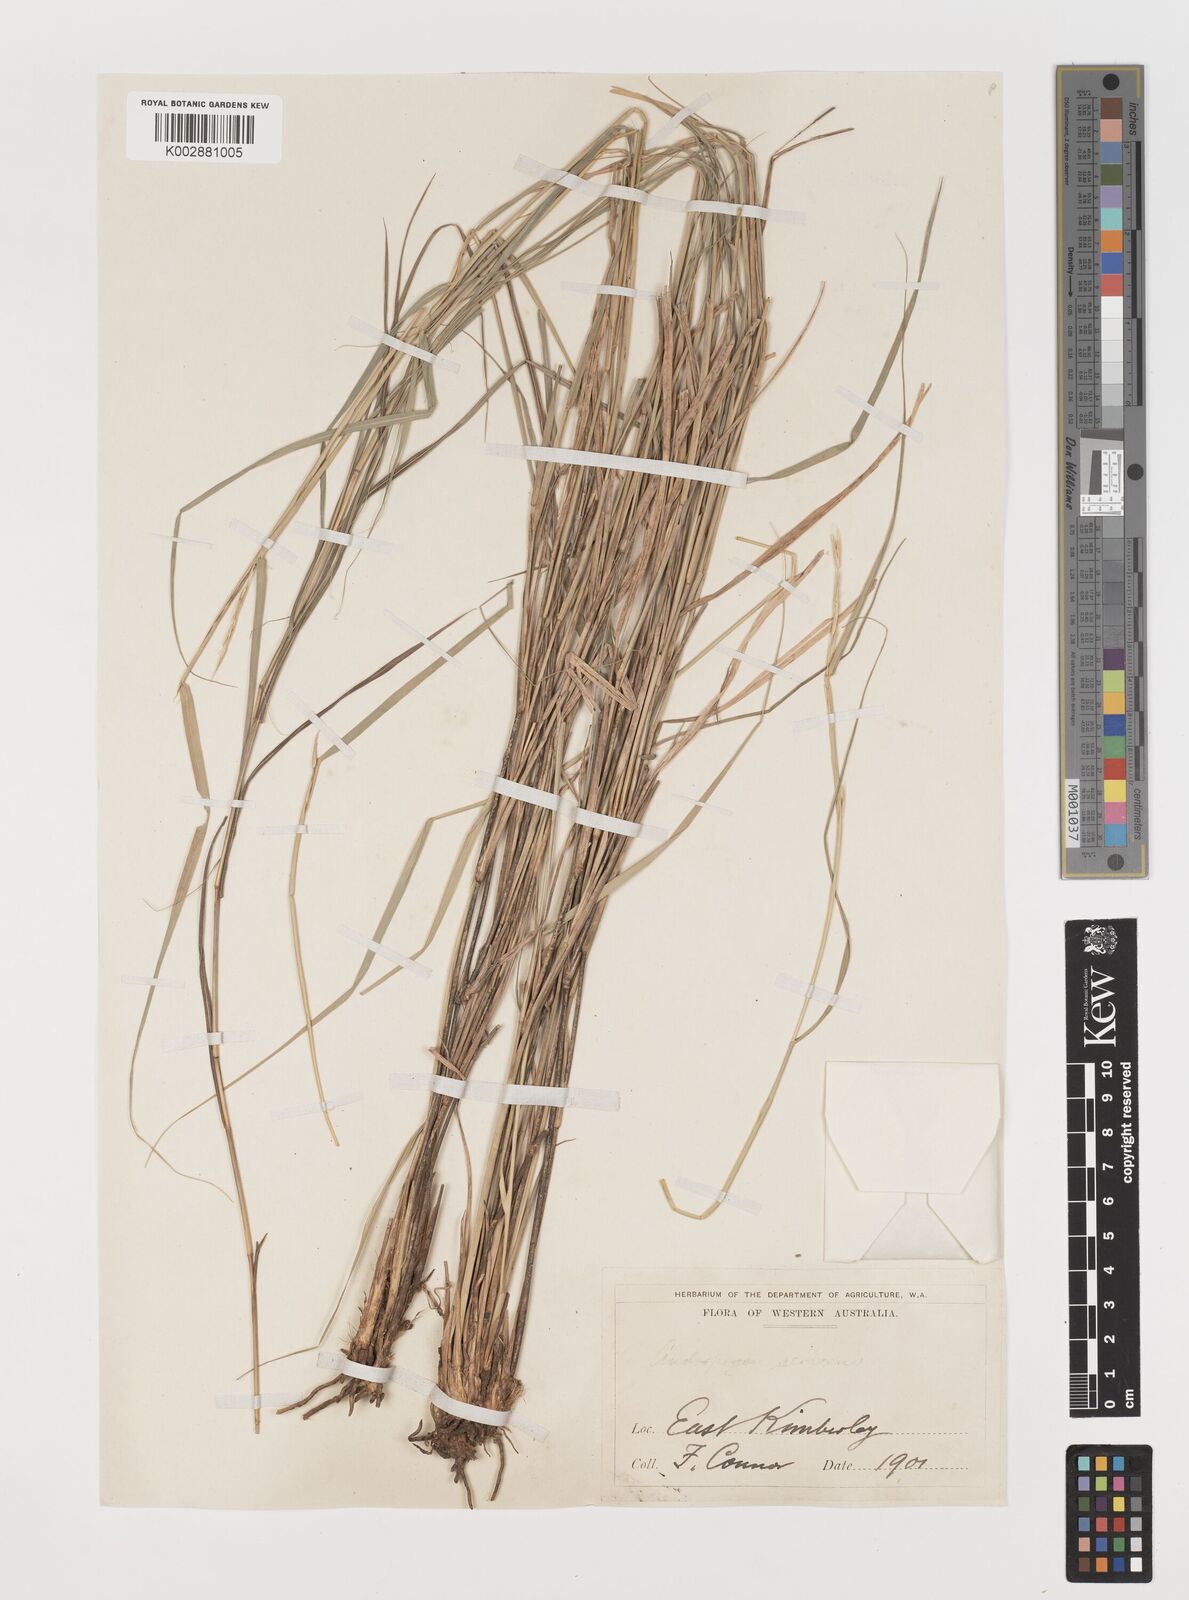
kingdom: Plantae
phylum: Tracheophyta
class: Liliopsida
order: Poales
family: Poaceae
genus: Astrebla
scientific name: Astrebla elymoides
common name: Hoop mitchell grass
